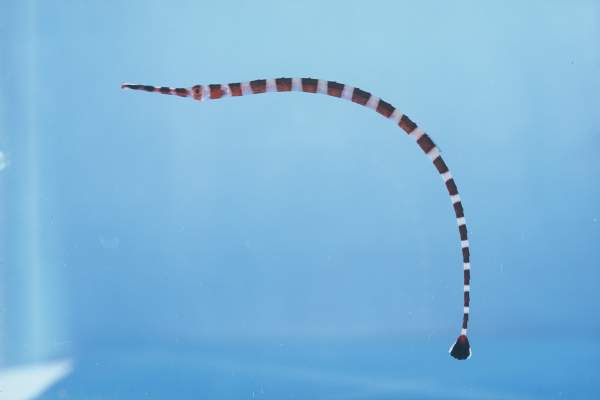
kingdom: Animalia
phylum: Chordata
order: Syngnathiformes
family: Syngnathidae
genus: Dunckerocampus
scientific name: Dunckerocampus boylei
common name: Broad-banded pipefish
